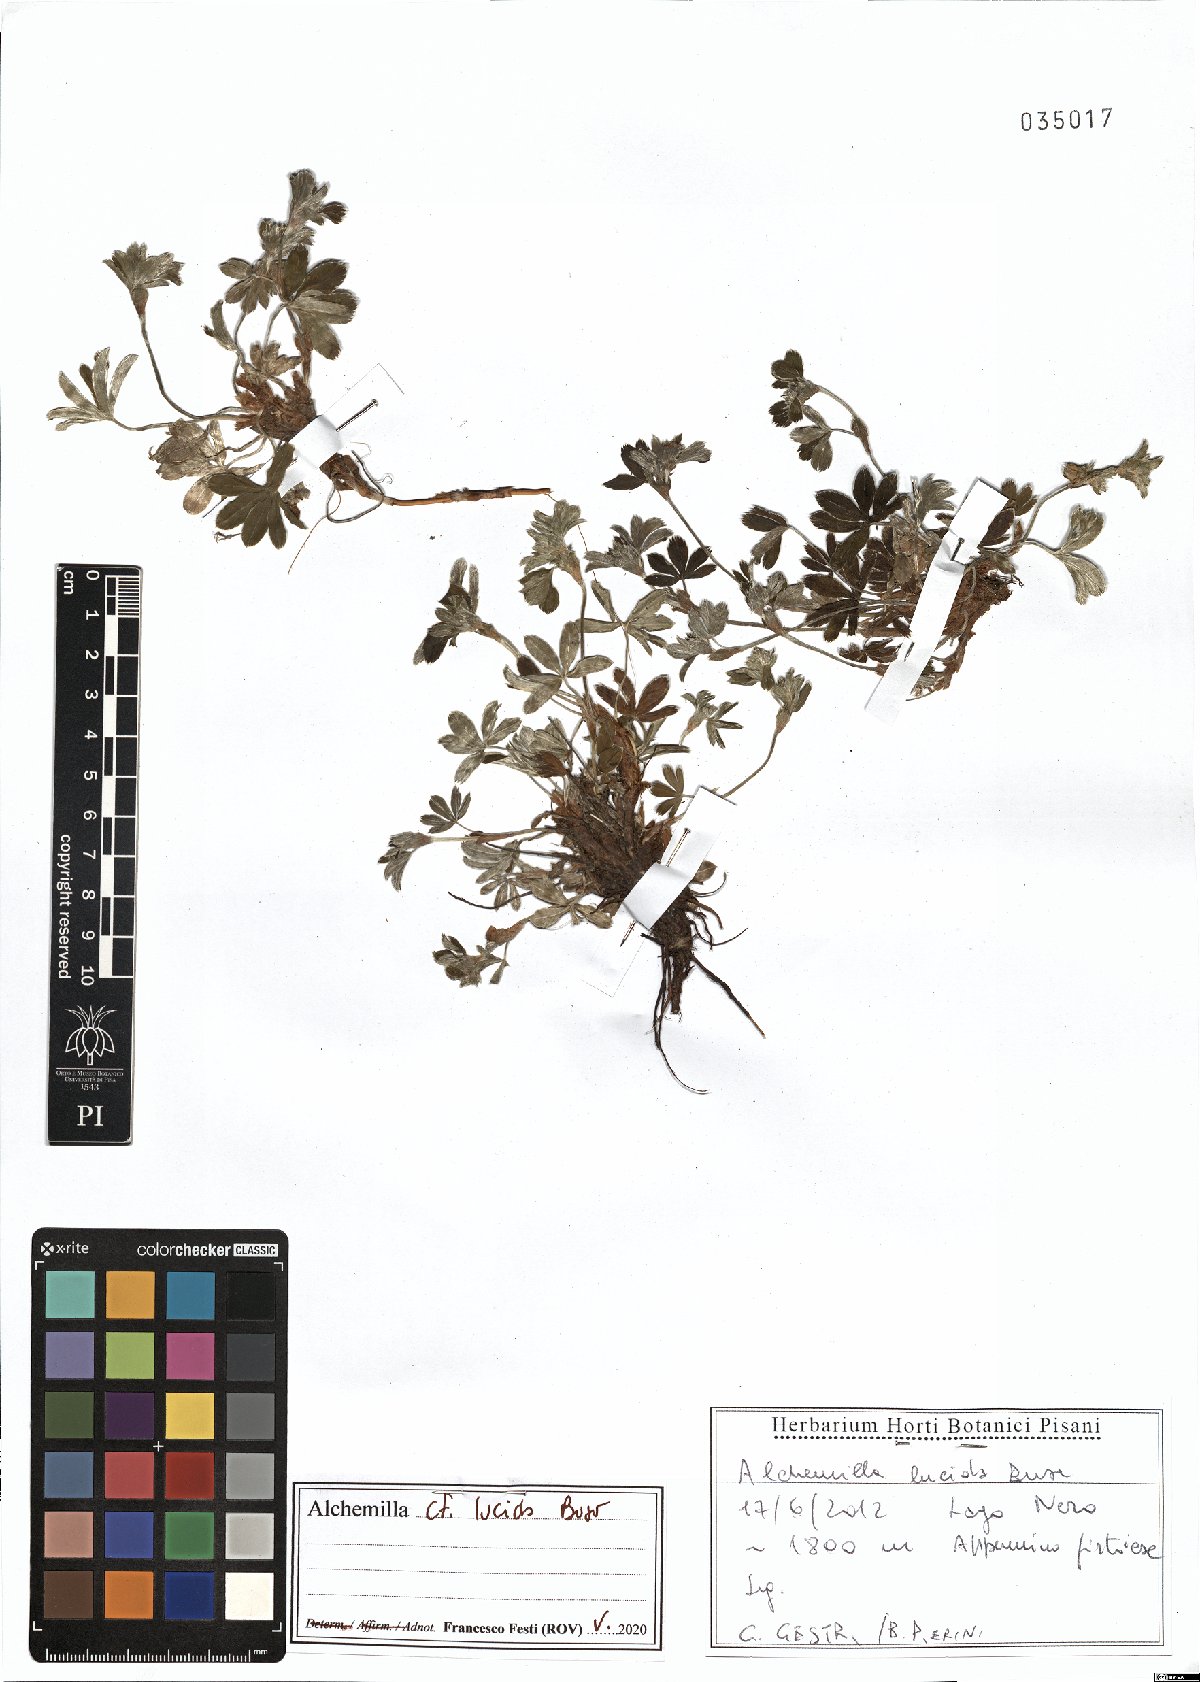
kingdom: Plantae
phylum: Tracheophyta
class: Magnoliopsida
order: Rosales
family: Rosaceae
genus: Alchemilla
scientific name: Alchemilla lucida
